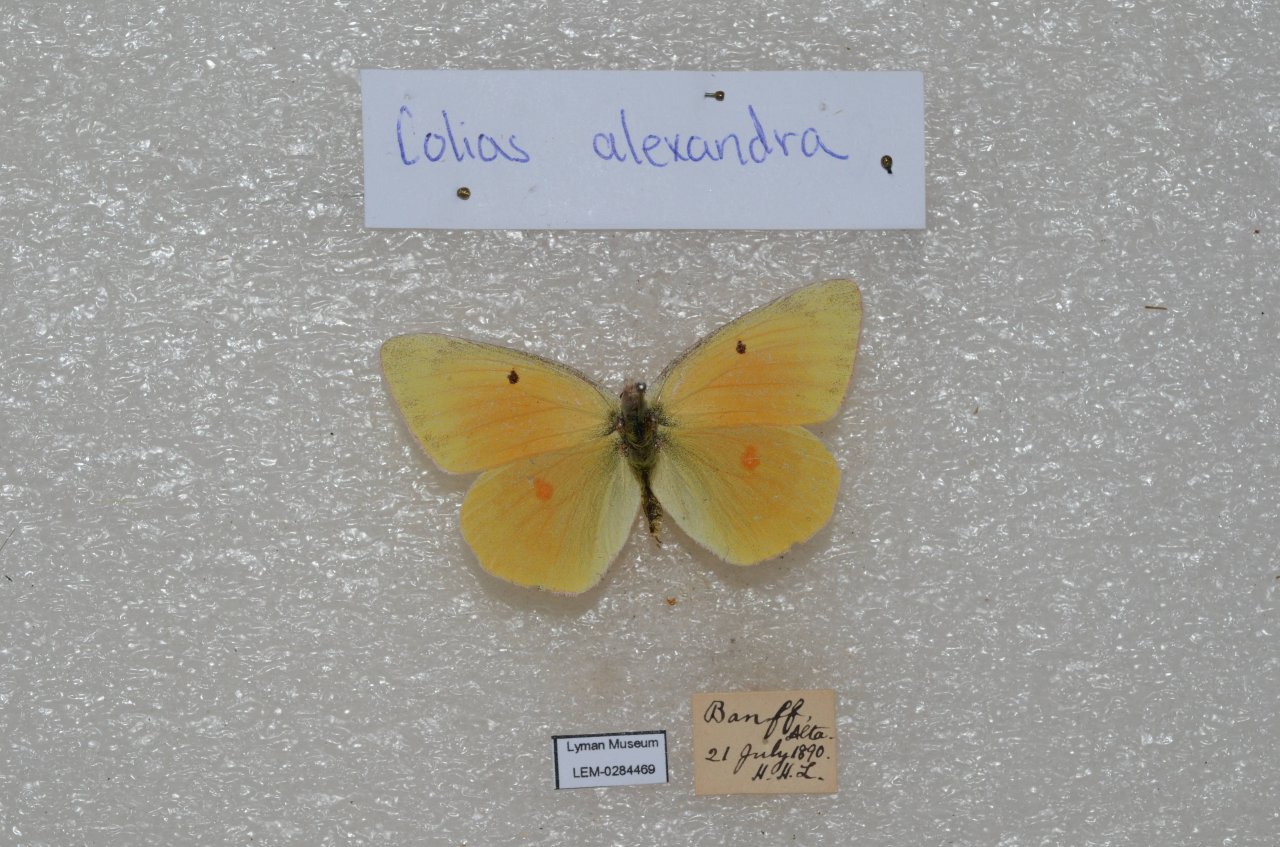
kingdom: Animalia
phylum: Arthropoda
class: Insecta
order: Lepidoptera
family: Pieridae
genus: Colias
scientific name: Colias alexandra
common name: Queen Alexandra's Sulphur
